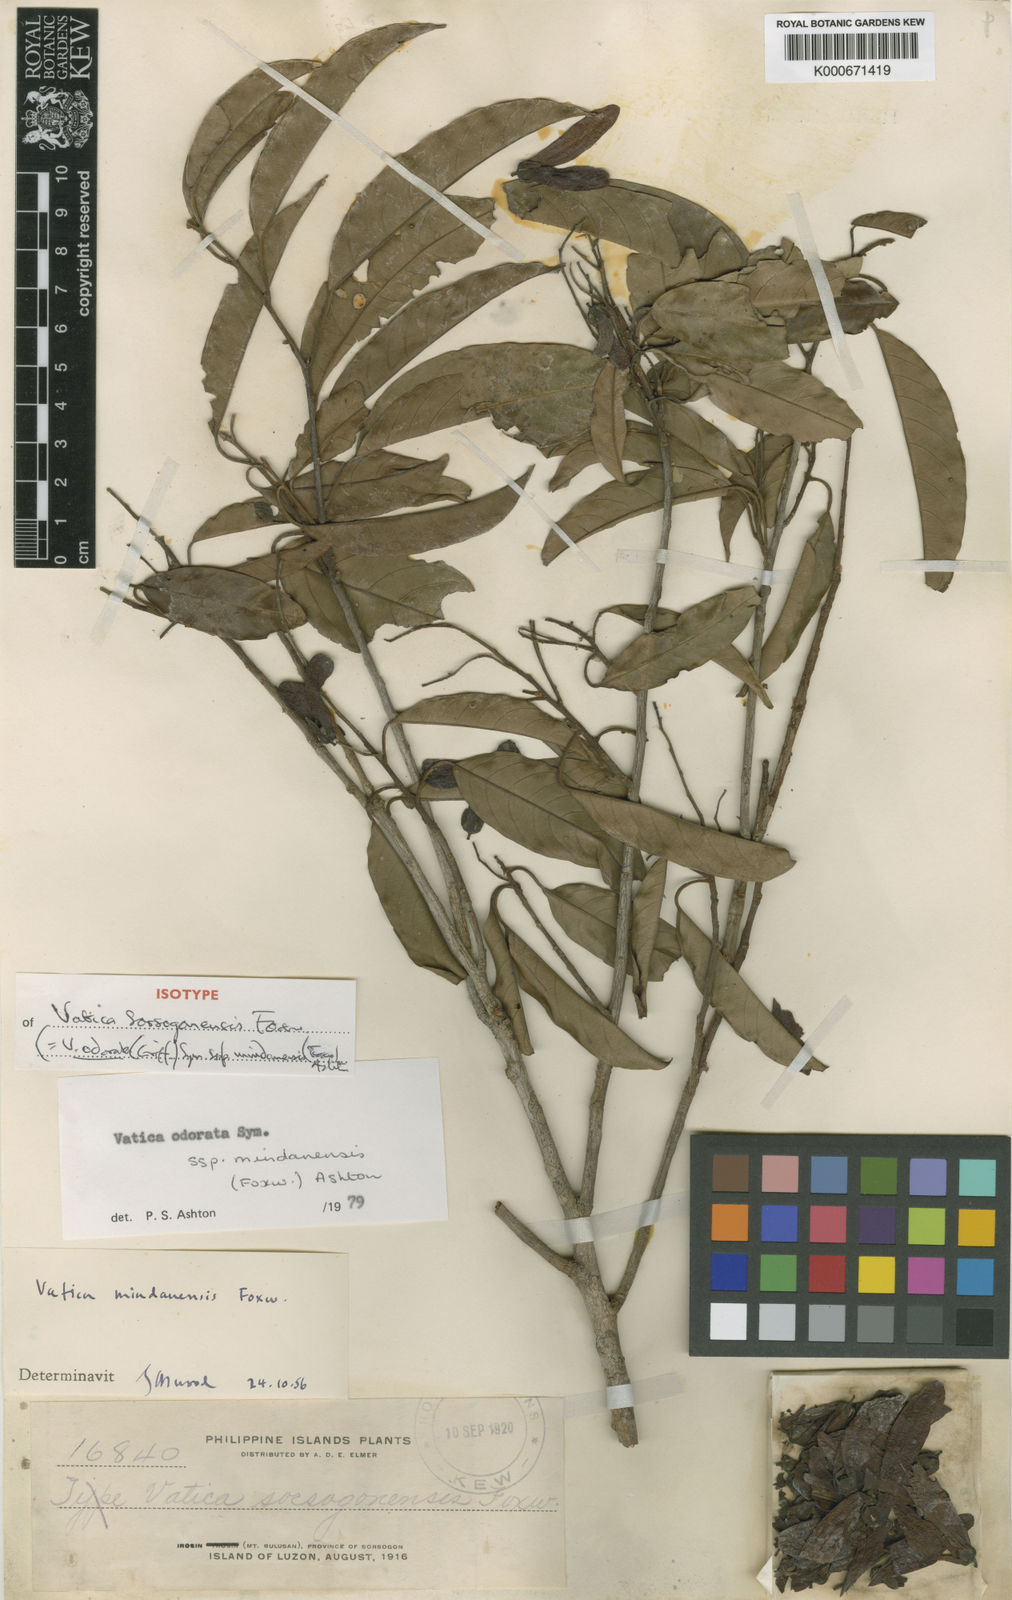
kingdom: Plantae
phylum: Tracheophyta
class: Magnoliopsida
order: Malvales
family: Dipterocarpaceae
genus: Vatica
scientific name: Vatica odorata
